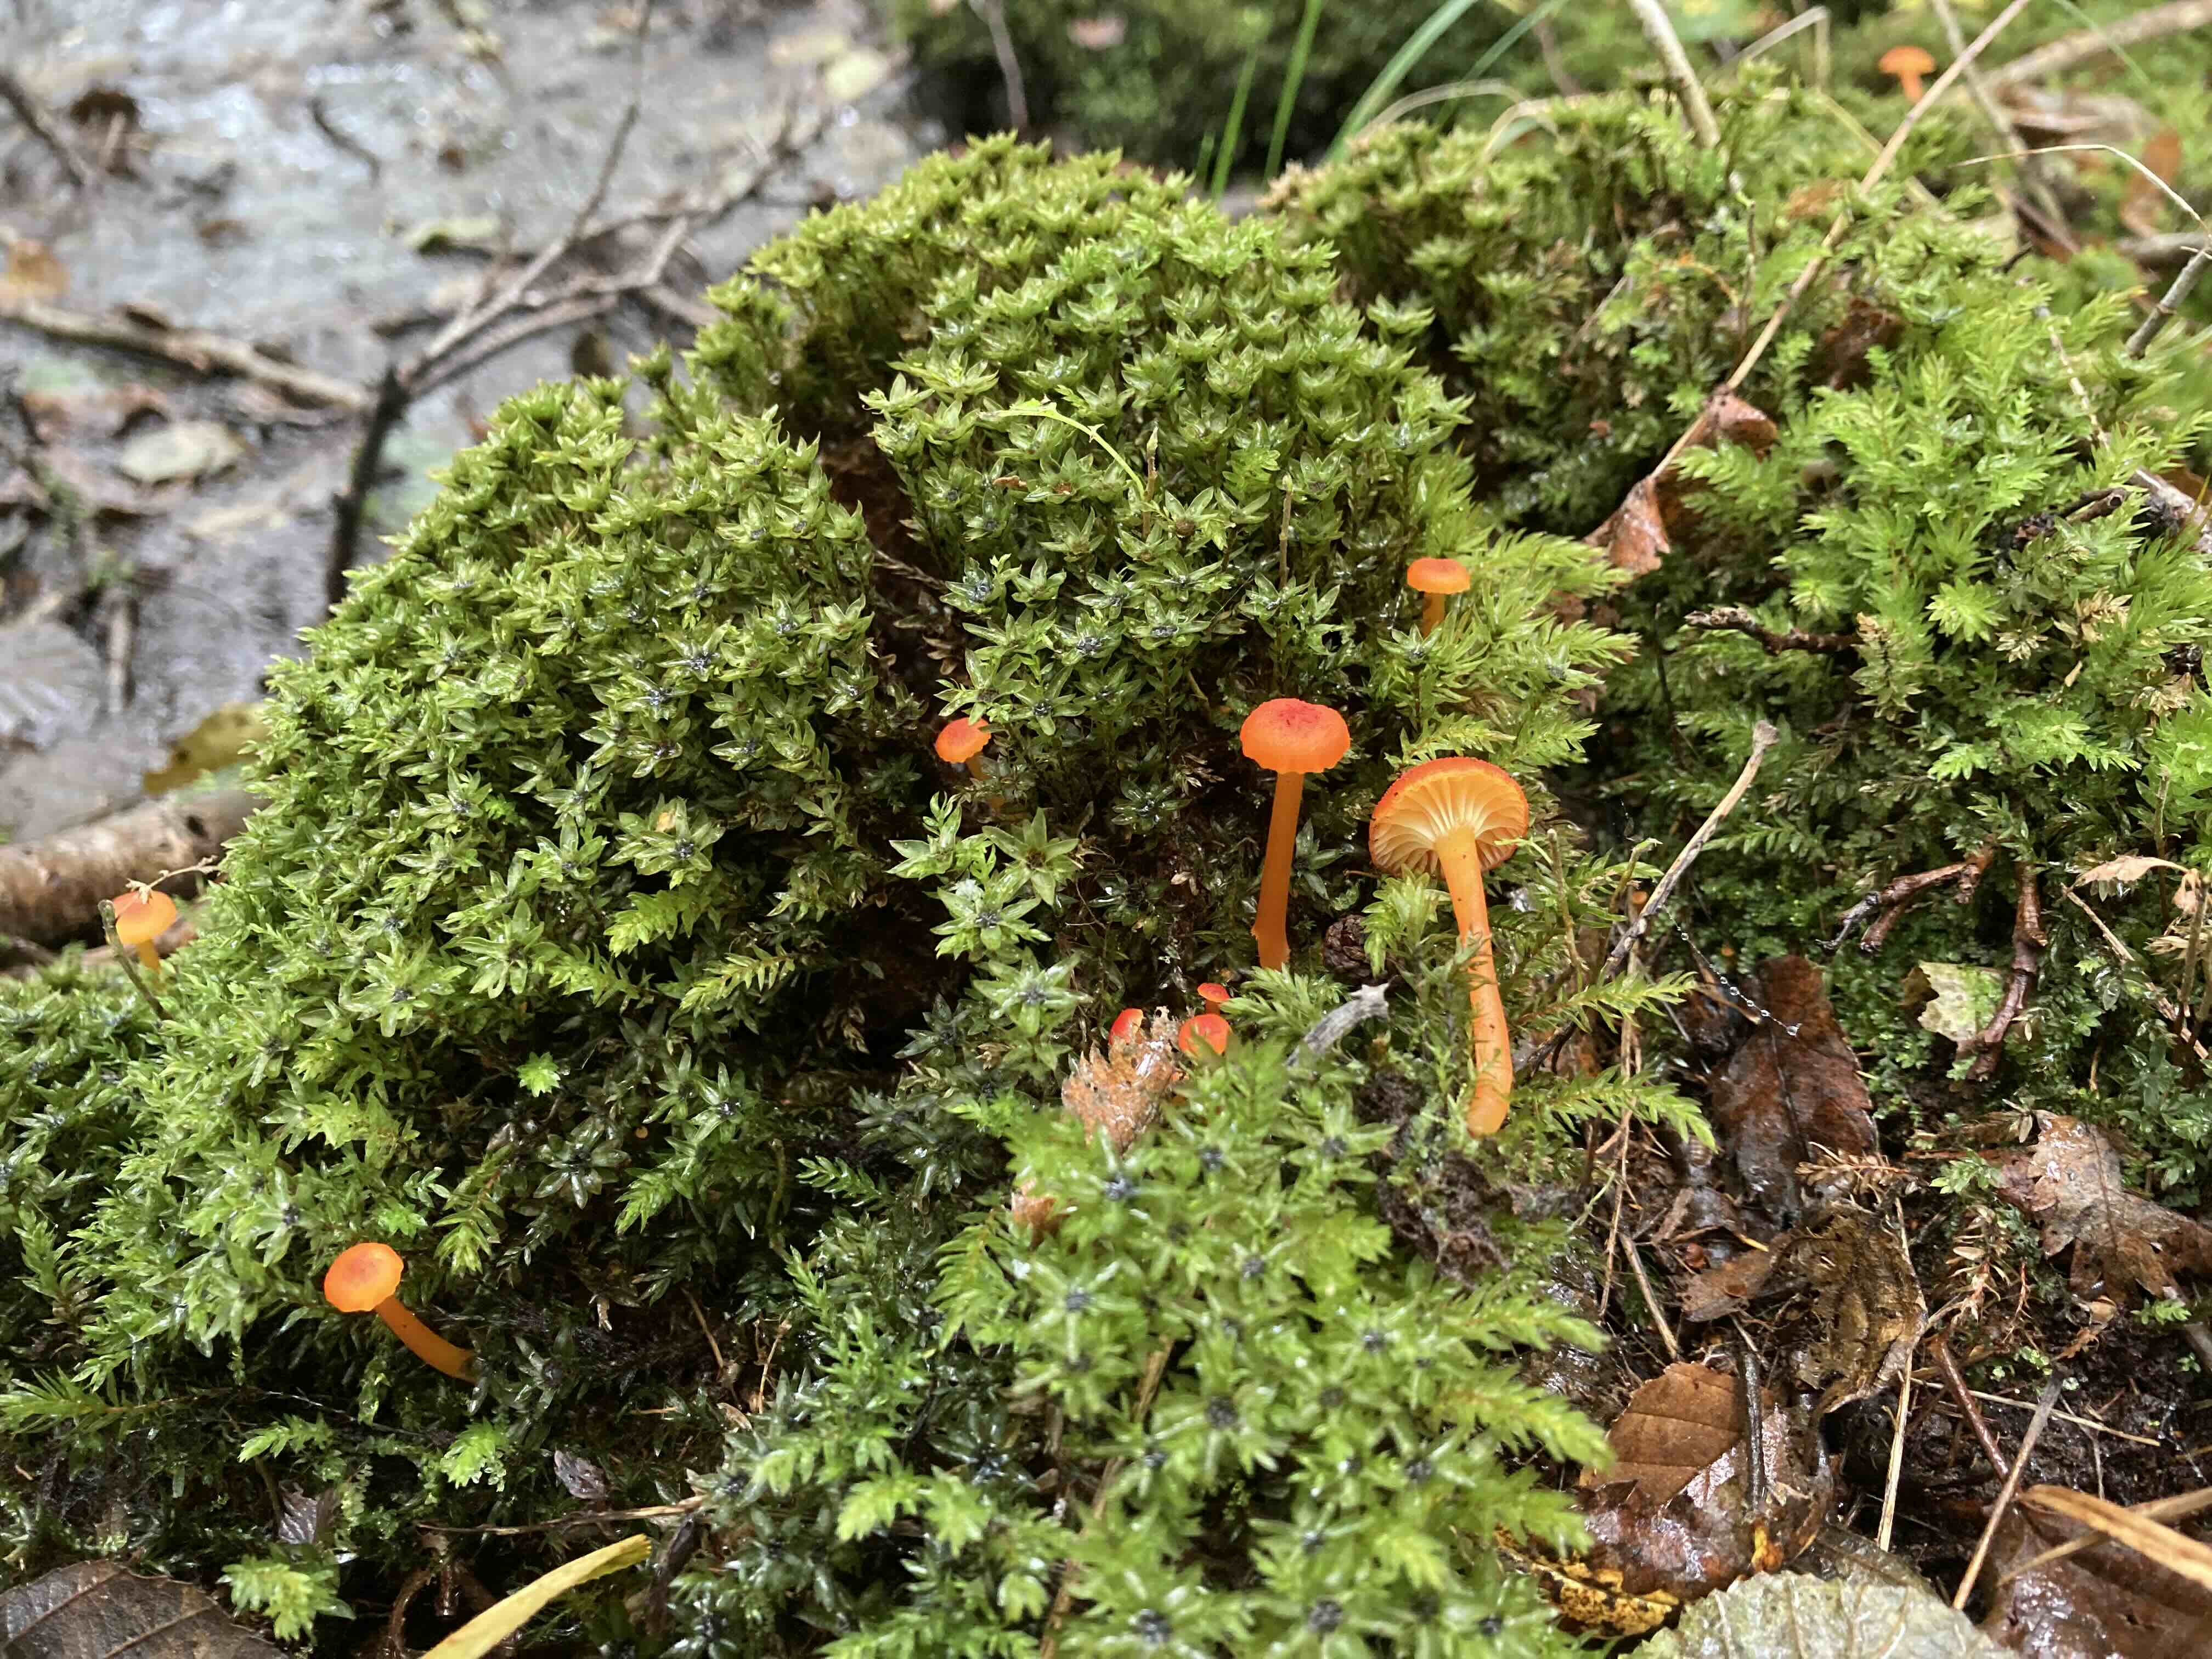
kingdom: Fungi
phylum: Basidiomycota
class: Agaricomycetes
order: Agaricales
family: Hygrophoraceae
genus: Hygrocybe
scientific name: Hygrocybe cantharellus
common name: kantarel-vokshat
